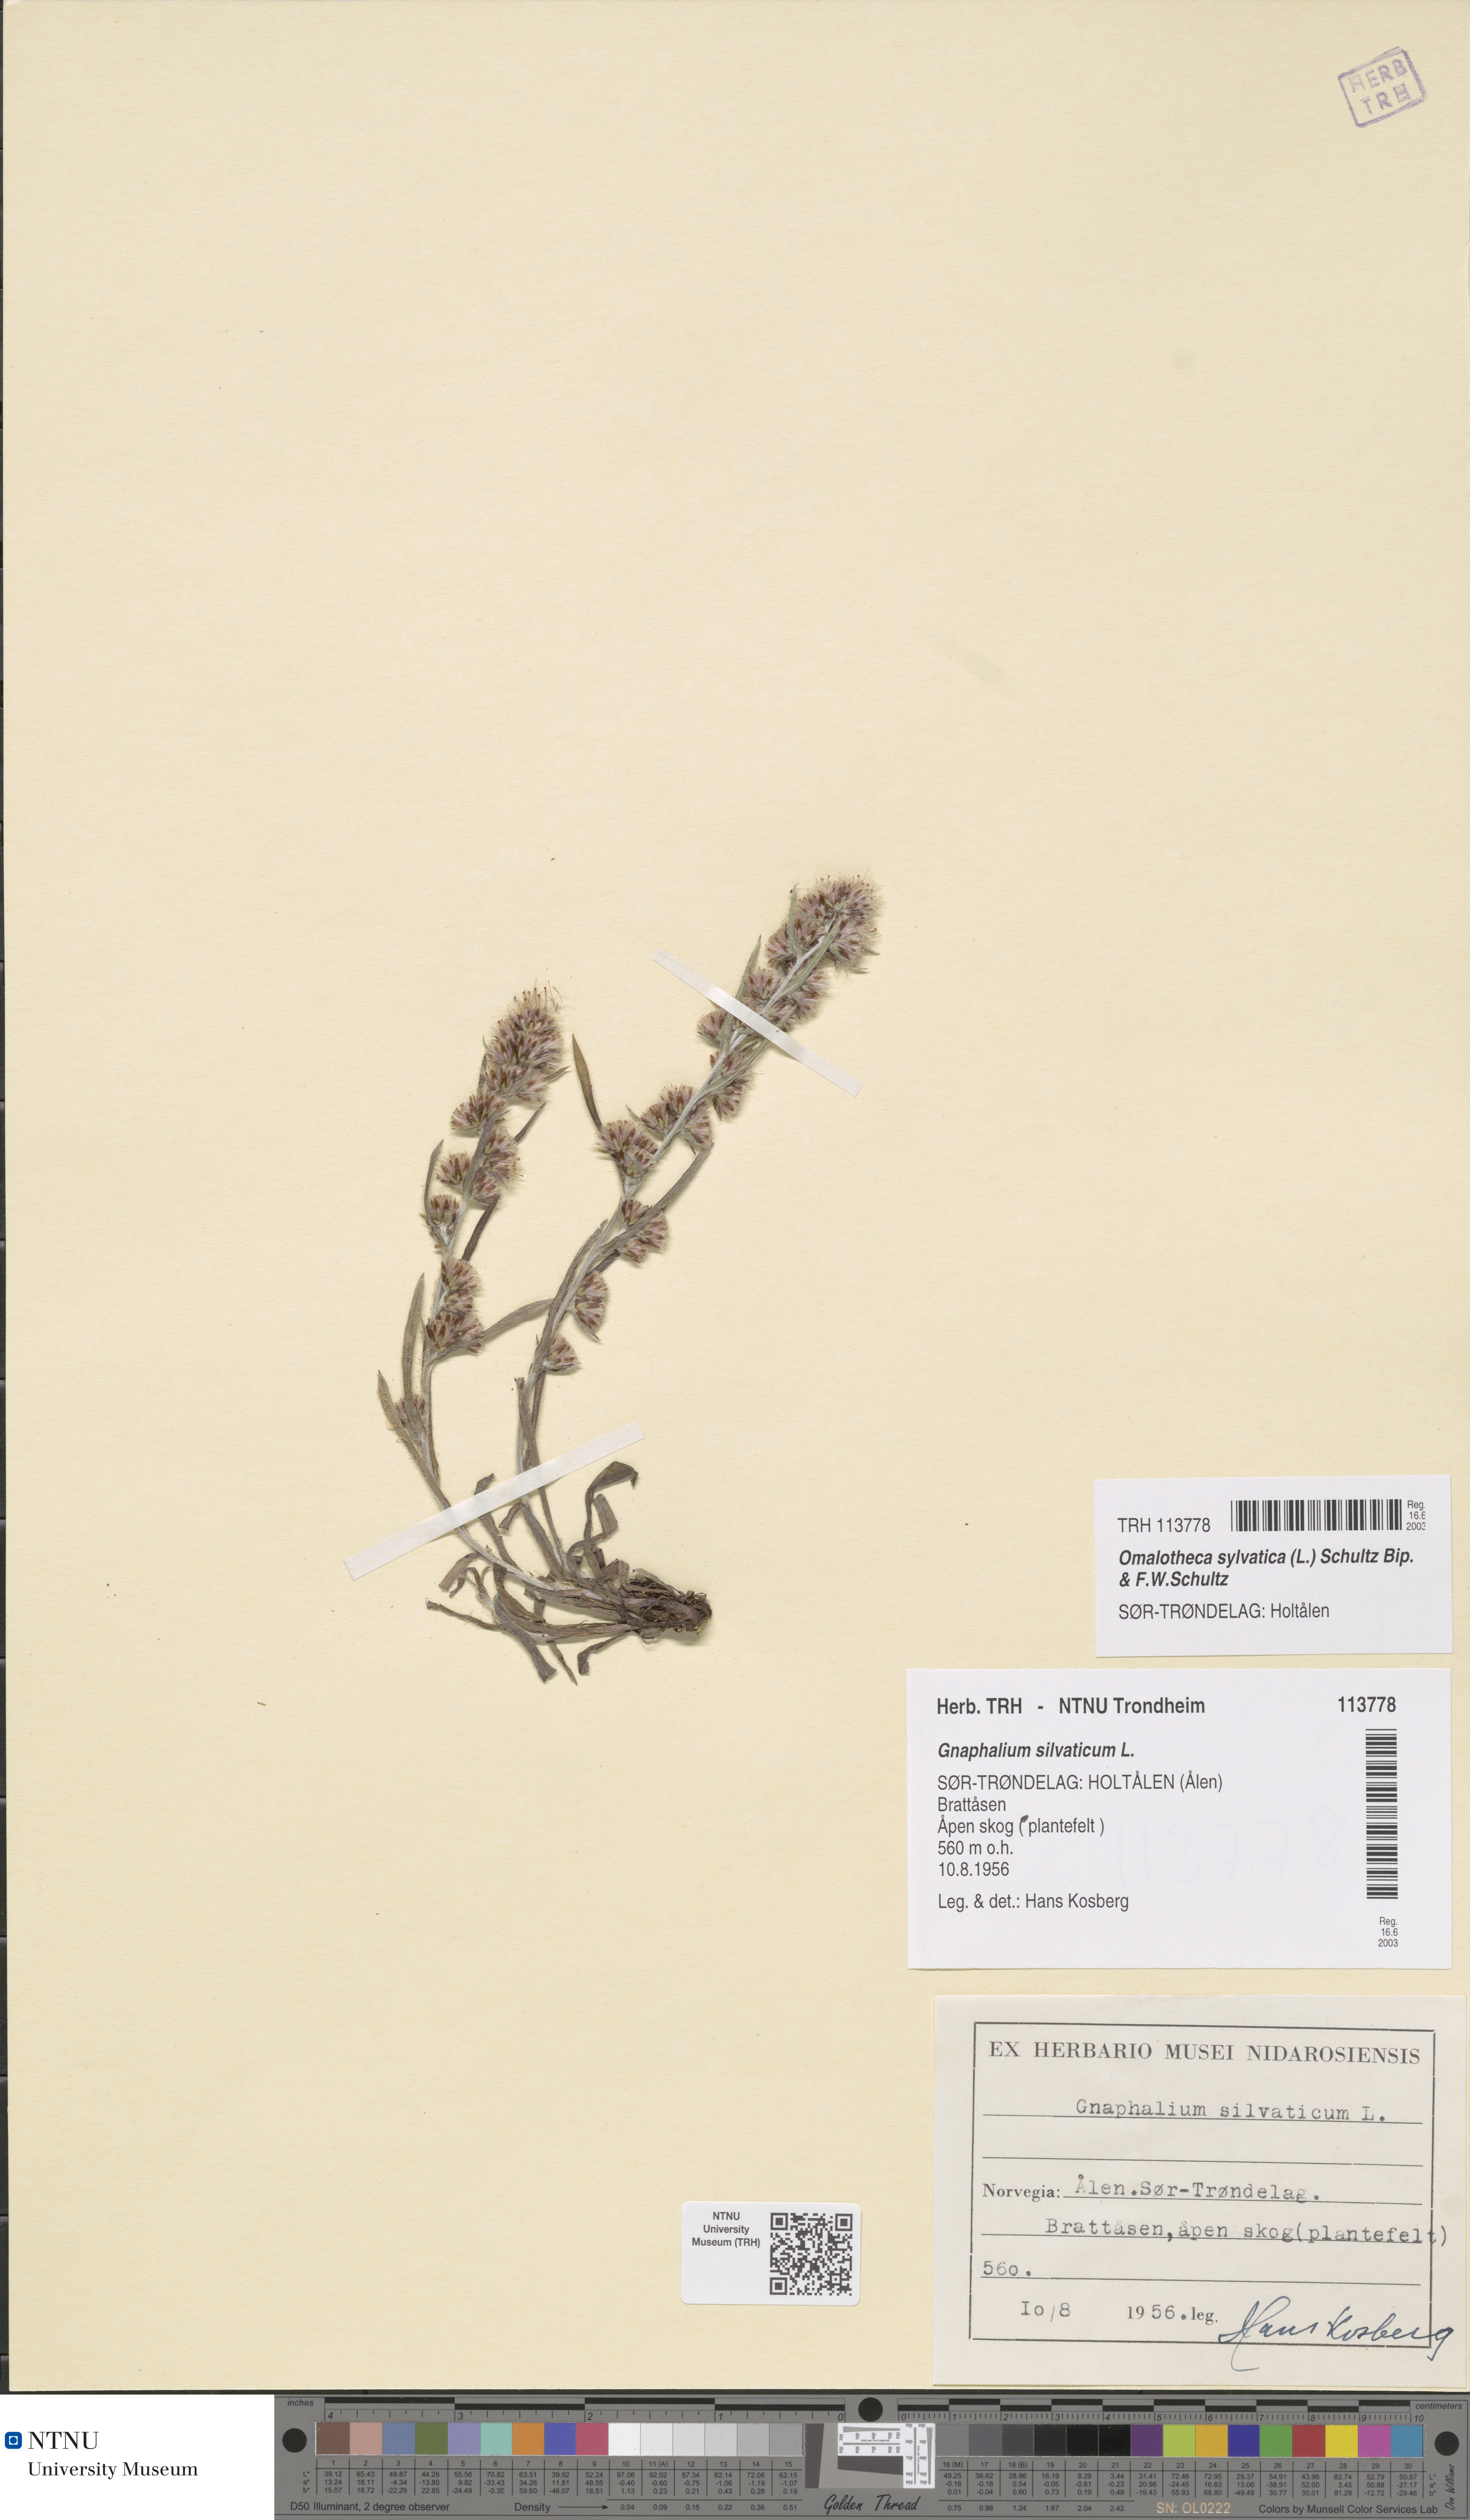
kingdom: Plantae
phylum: Tracheophyta
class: Magnoliopsida
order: Asterales
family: Asteraceae
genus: Omalotheca
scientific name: Omalotheca sylvatica
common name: Heath cudweed
